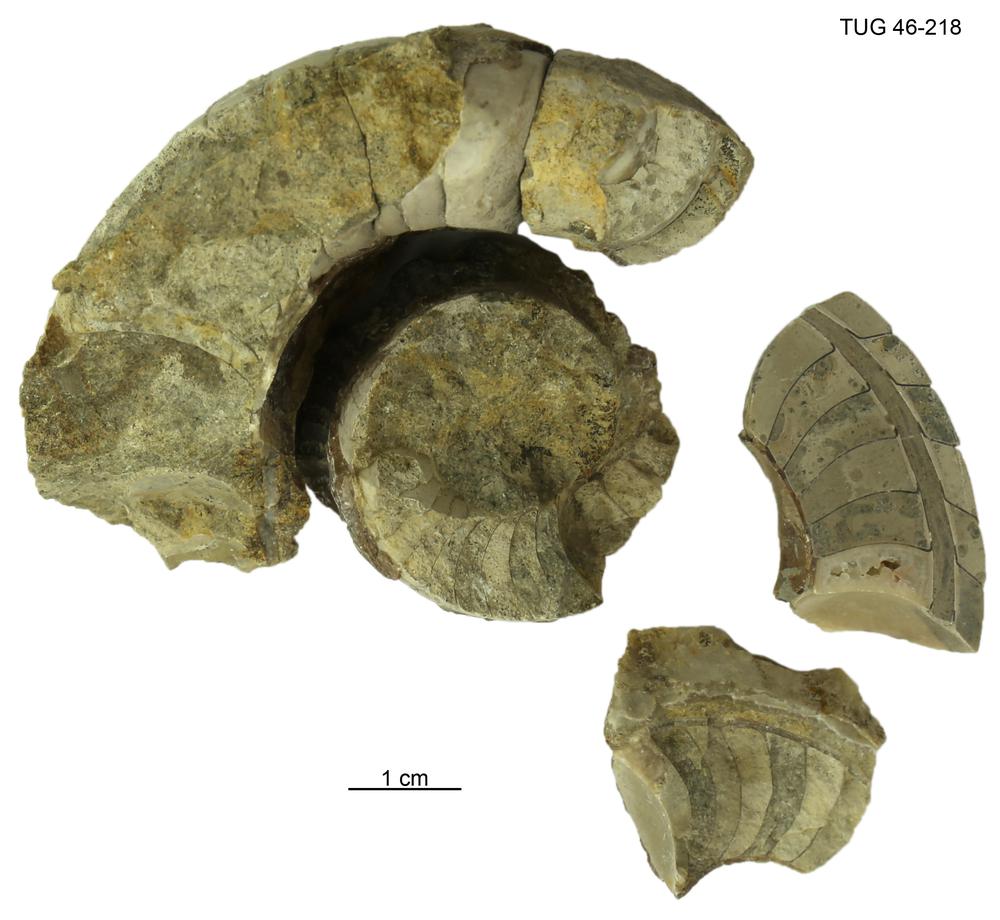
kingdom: Animalia
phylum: Mollusca
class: Cephalopoda
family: Estonioceratidae
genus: Estonioceras
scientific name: Estonioceras
